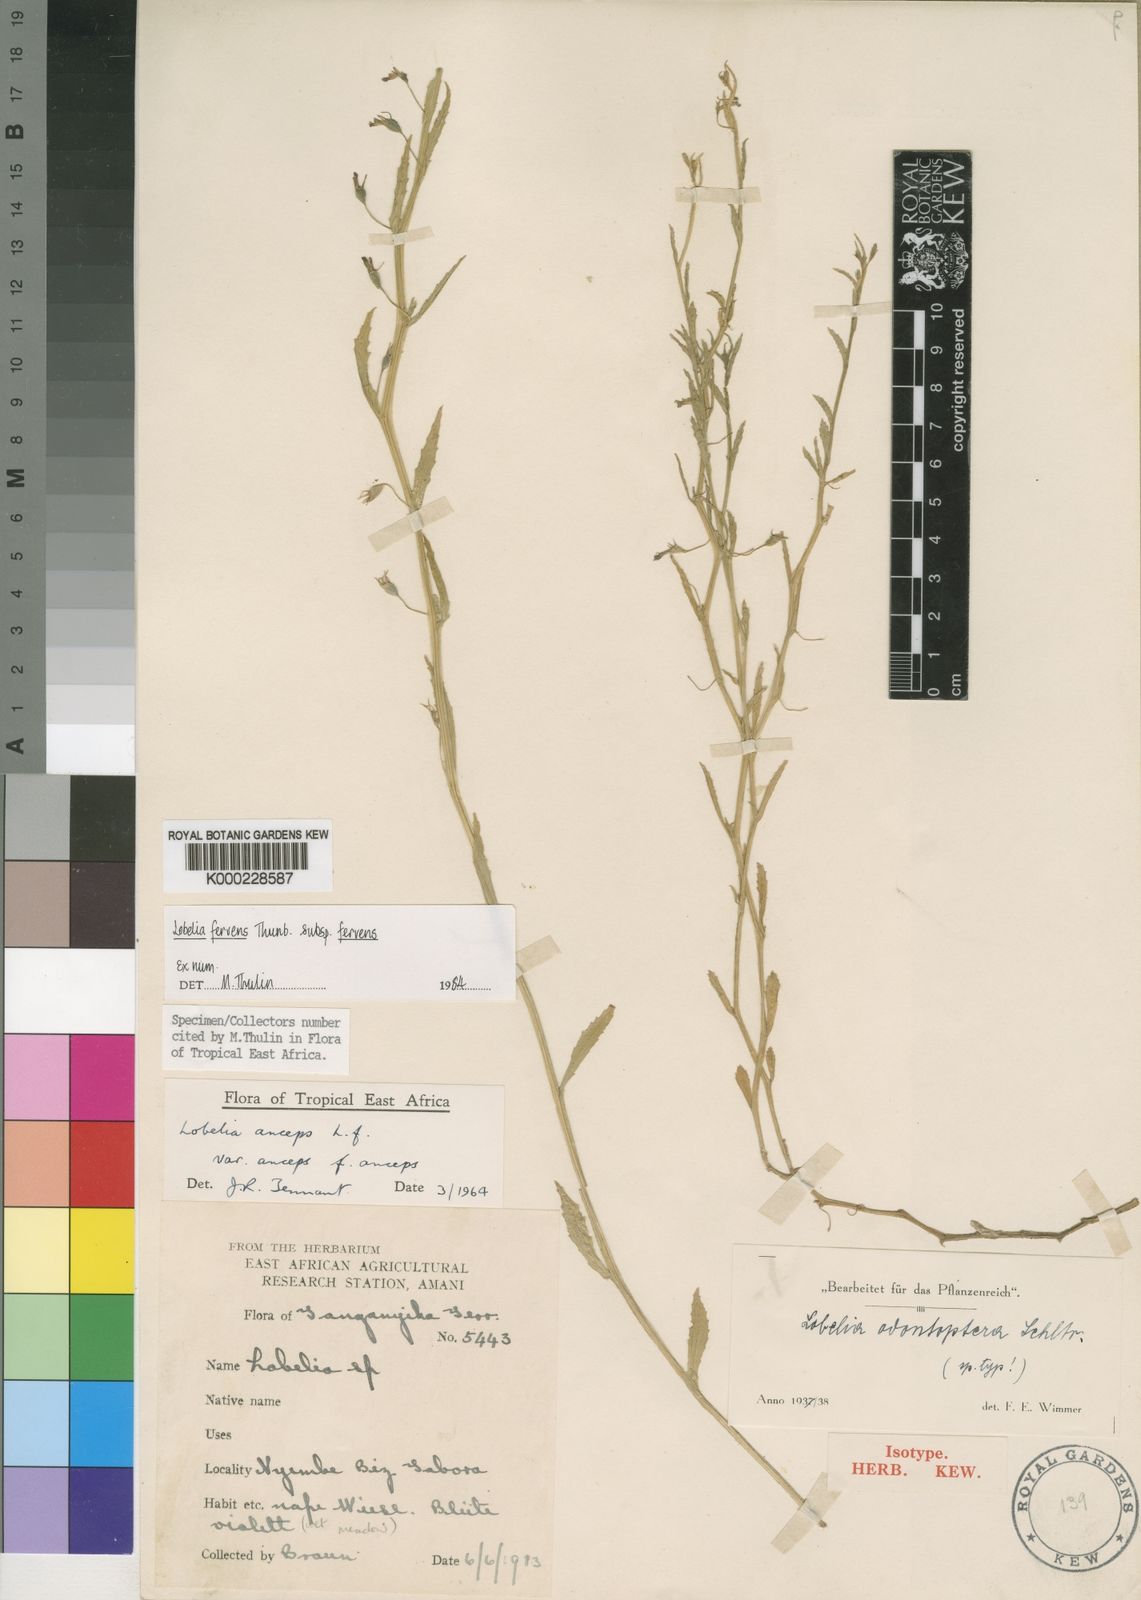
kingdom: Plantae
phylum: Tracheophyta
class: Magnoliopsida
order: Asterales
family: Campanulaceae
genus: Lobelia
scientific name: Lobelia fervens
